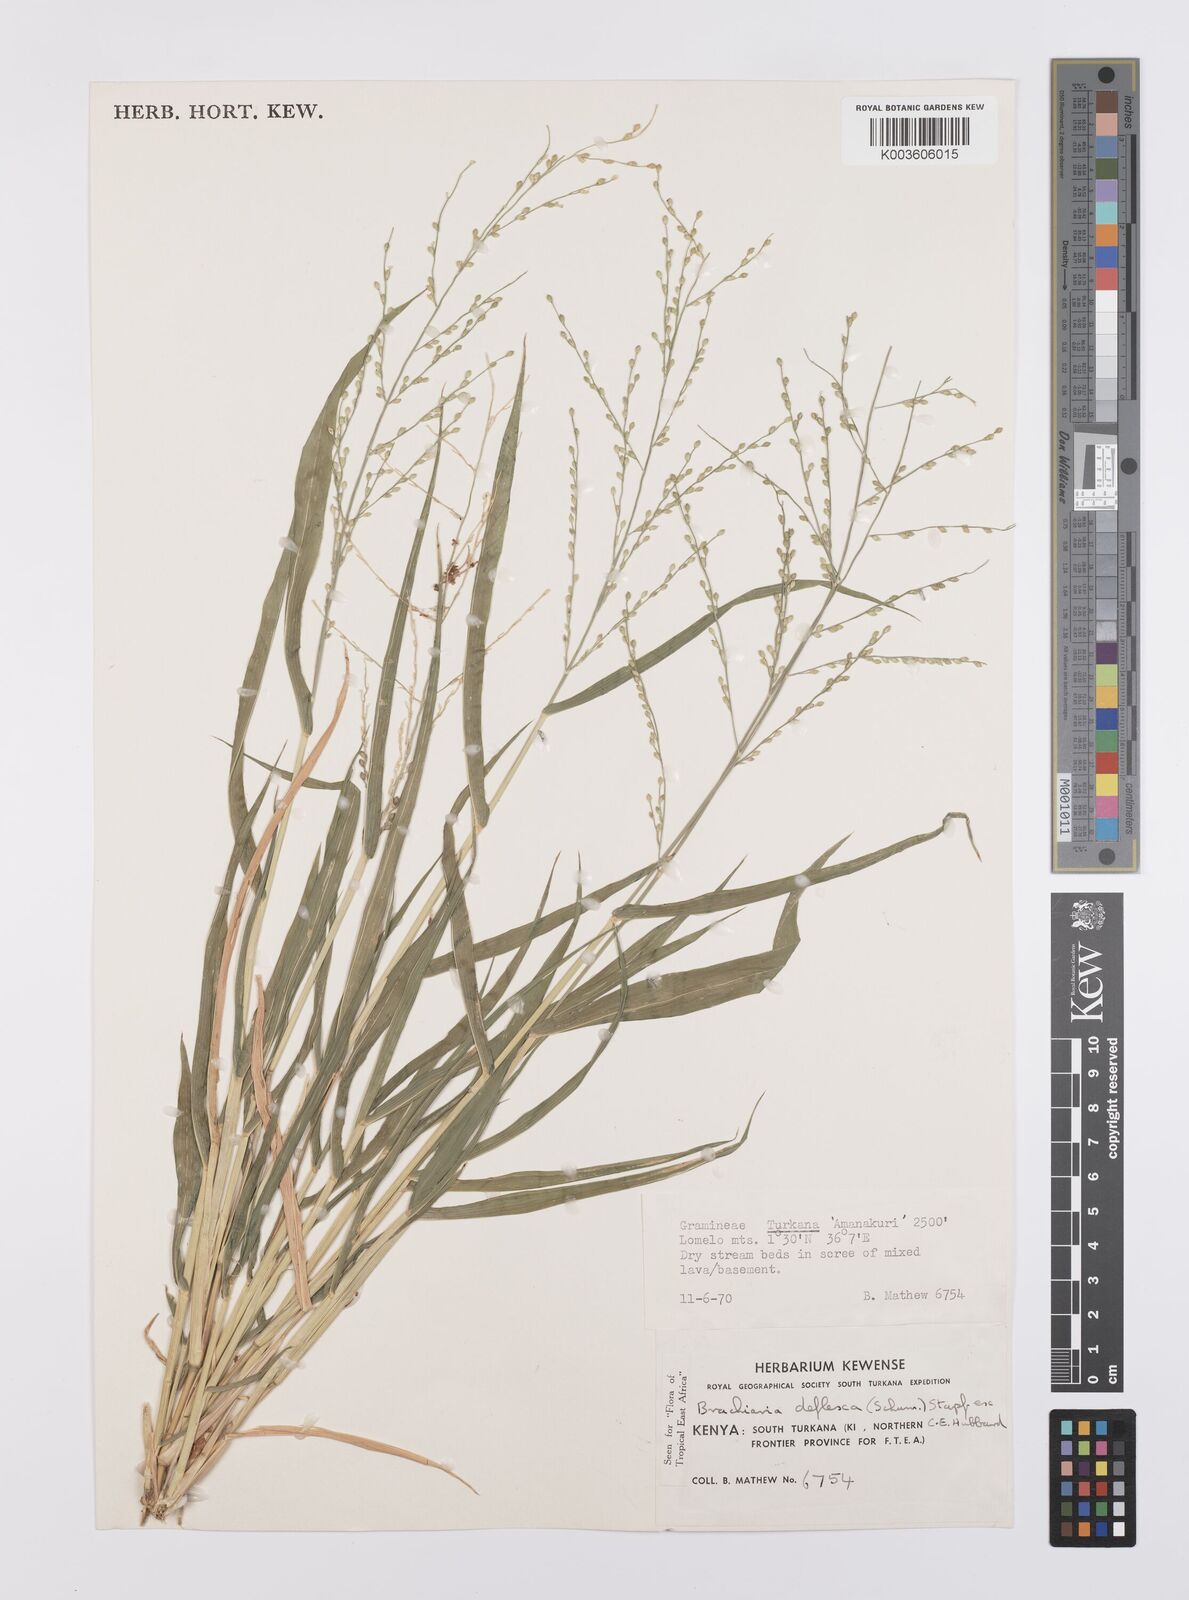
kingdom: Plantae
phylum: Tracheophyta
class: Liliopsida
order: Poales
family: Poaceae
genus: Urochloa
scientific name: Urochloa deflexa
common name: Guinea millet
